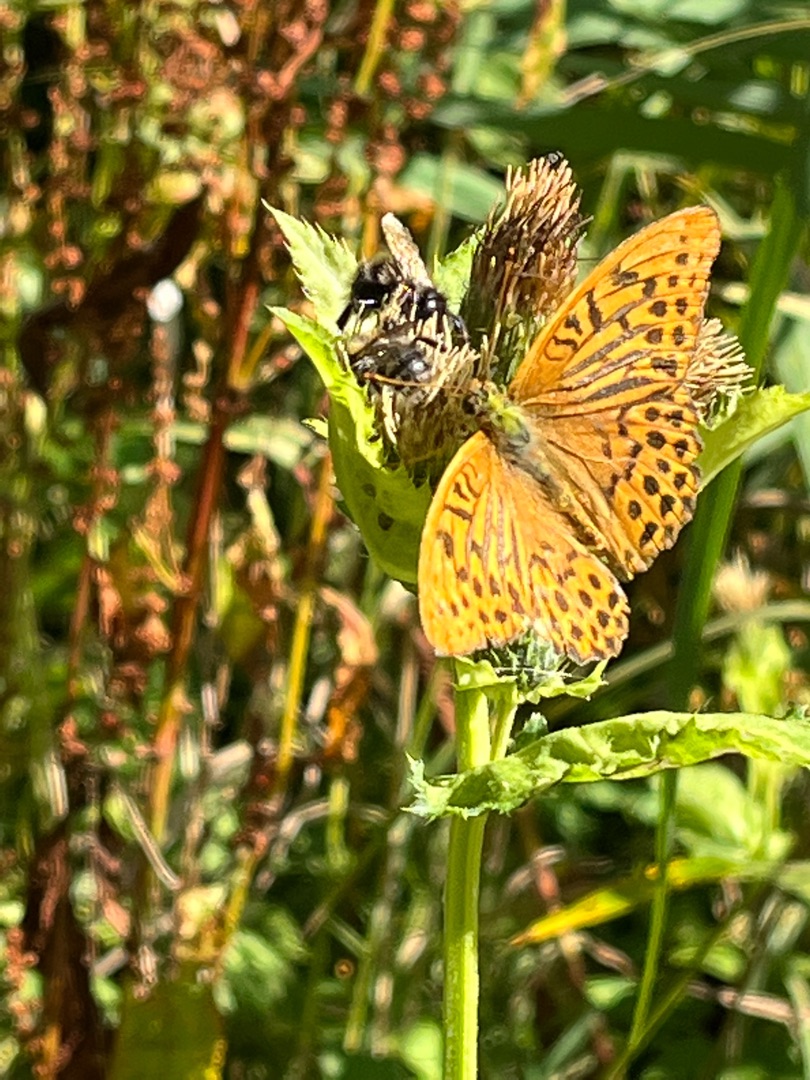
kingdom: Animalia
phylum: Arthropoda
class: Insecta
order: Lepidoptera
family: Nymphalidae
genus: Argynnis
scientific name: Argynnis paphia
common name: Kejserkåbe
